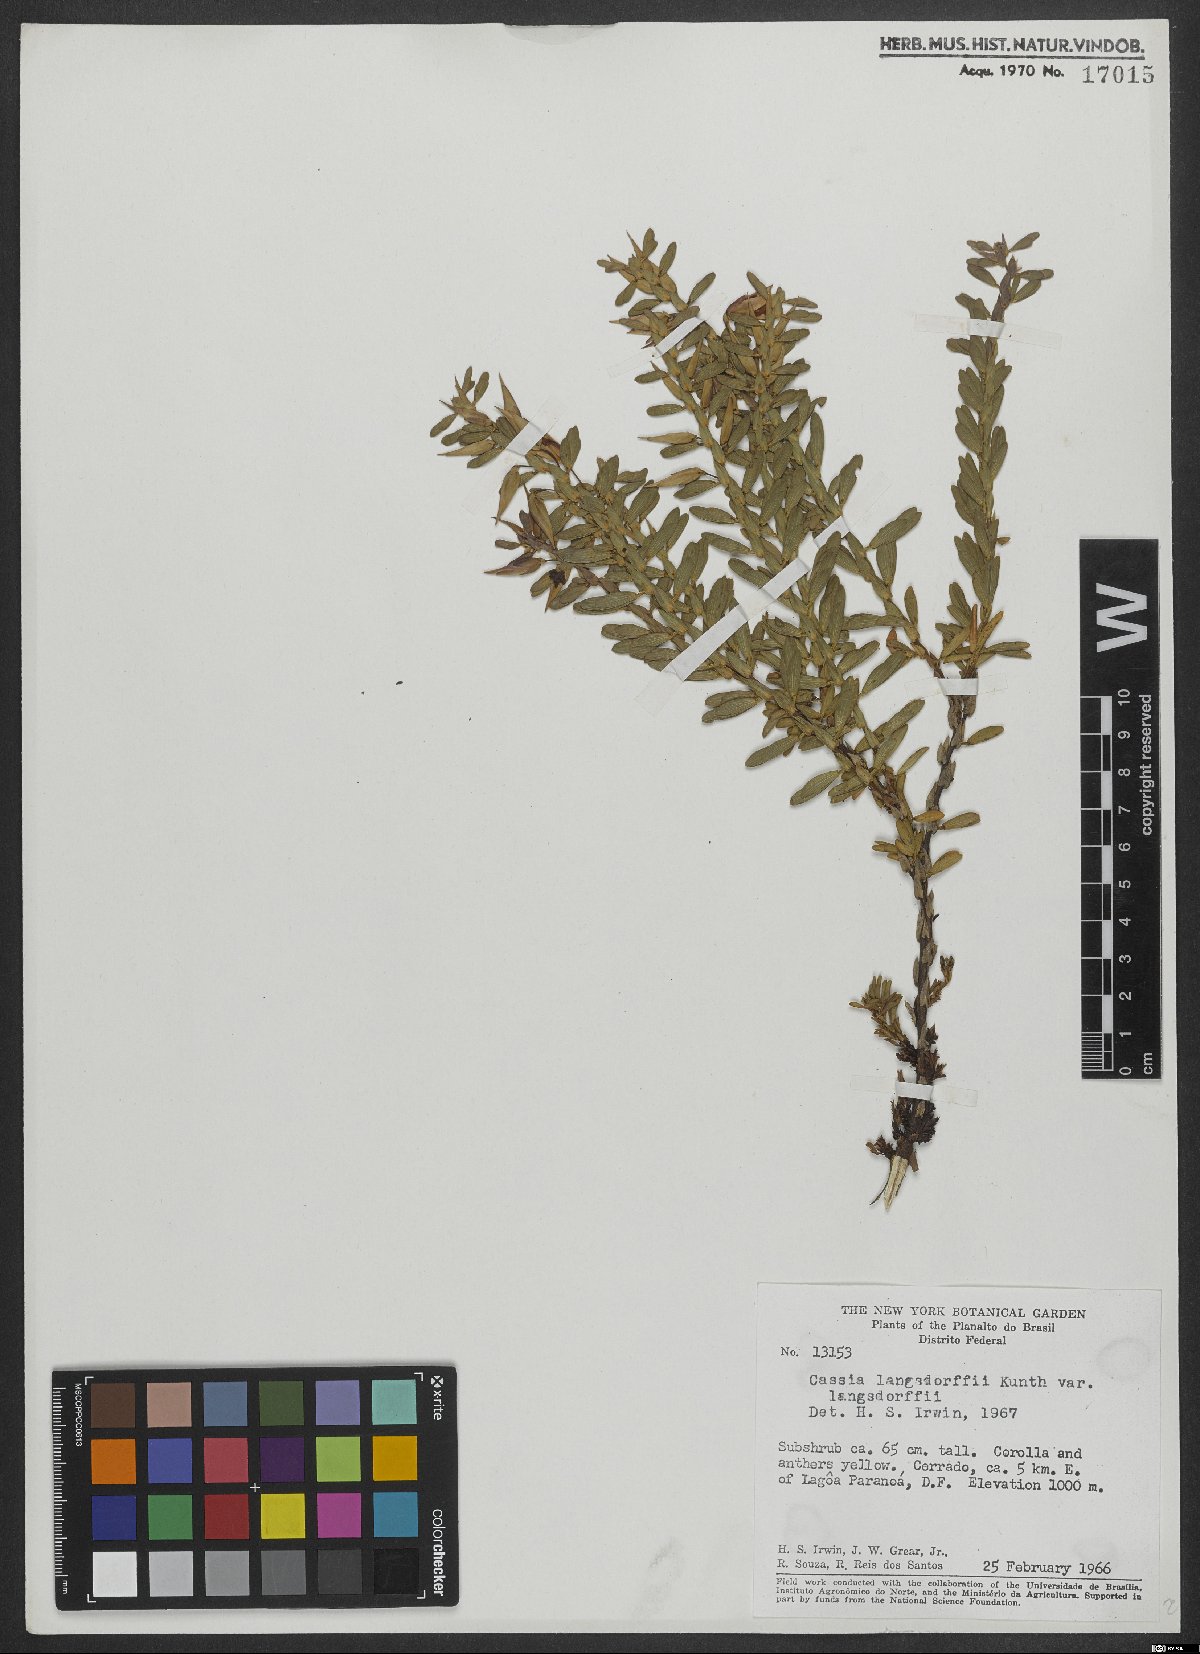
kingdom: Plantae
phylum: Tracheophyta
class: Magnoliopsida
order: Fabales
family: Fabaceae
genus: Chamaecrista
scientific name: Chamaecrista langsdorffii
